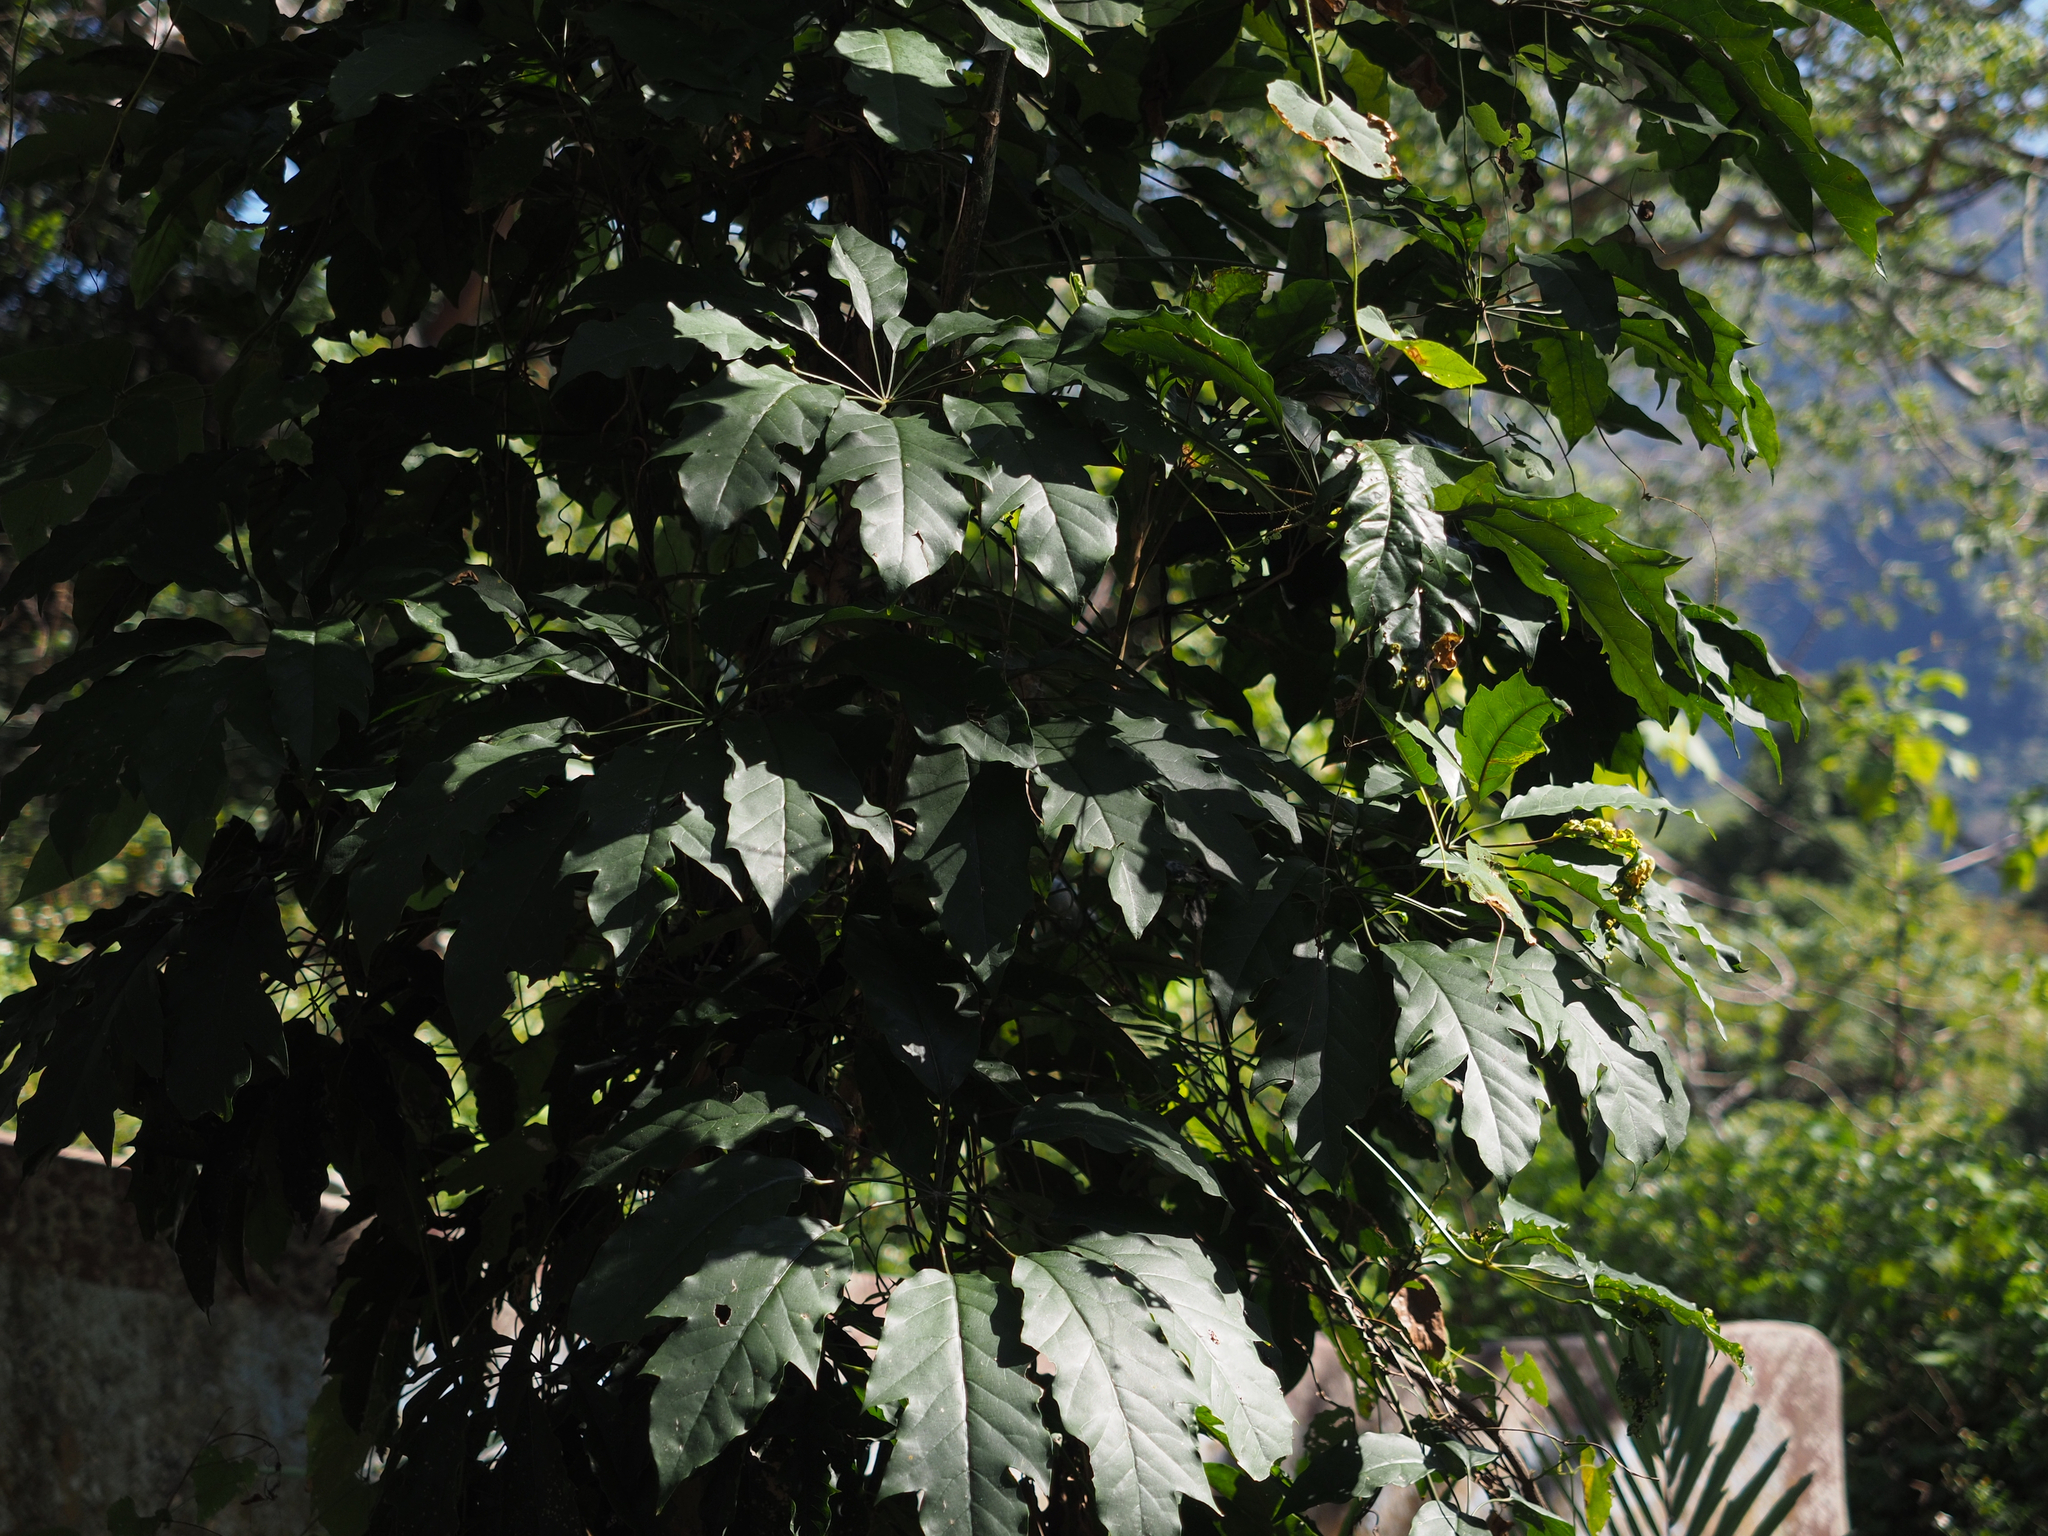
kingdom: Plantae
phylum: Tracheophyta
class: Magnoliopsida
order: Apiales
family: Araliaceae
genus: Heptapleurum
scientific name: Heptapleurum heptaphyllum
